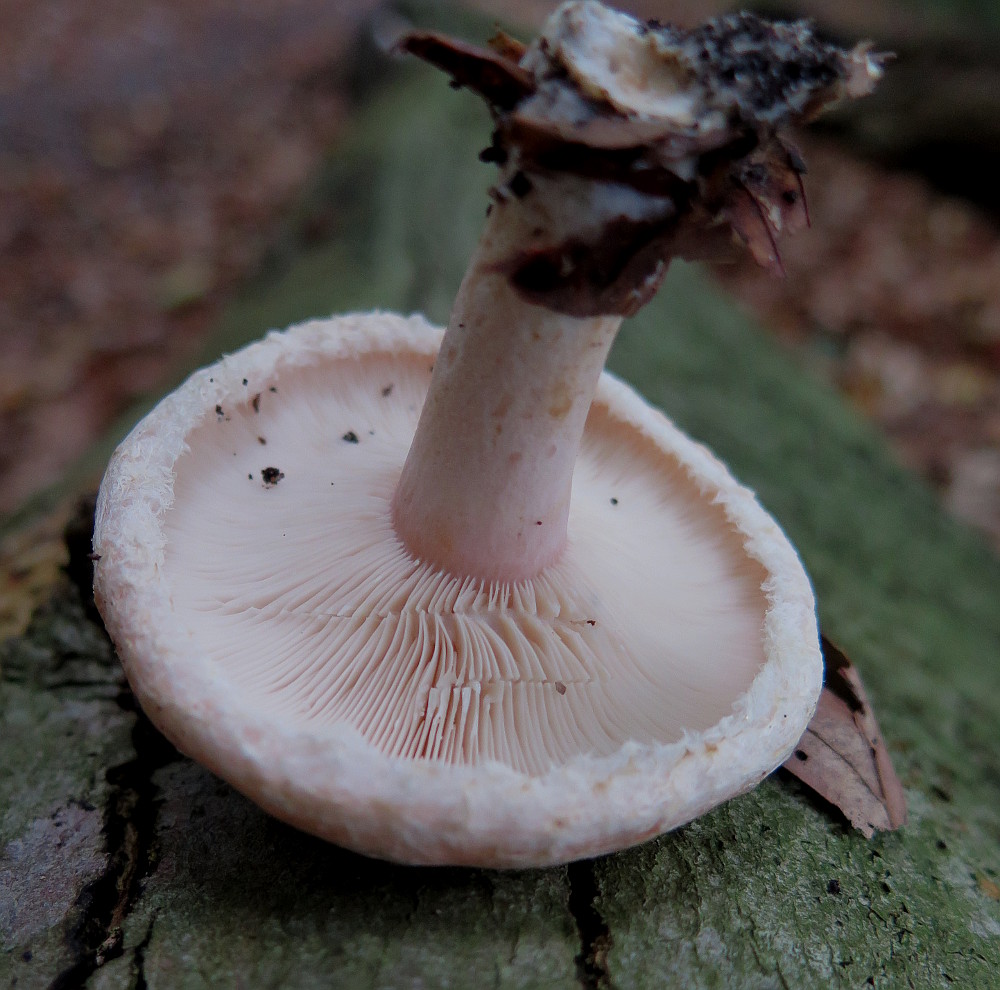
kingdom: Fungi
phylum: Basidiomycota
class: Agaricomycetes
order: Russulales
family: Russulaceae
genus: Lactarius
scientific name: Lactarius pubescens
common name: dunet mælkehat
